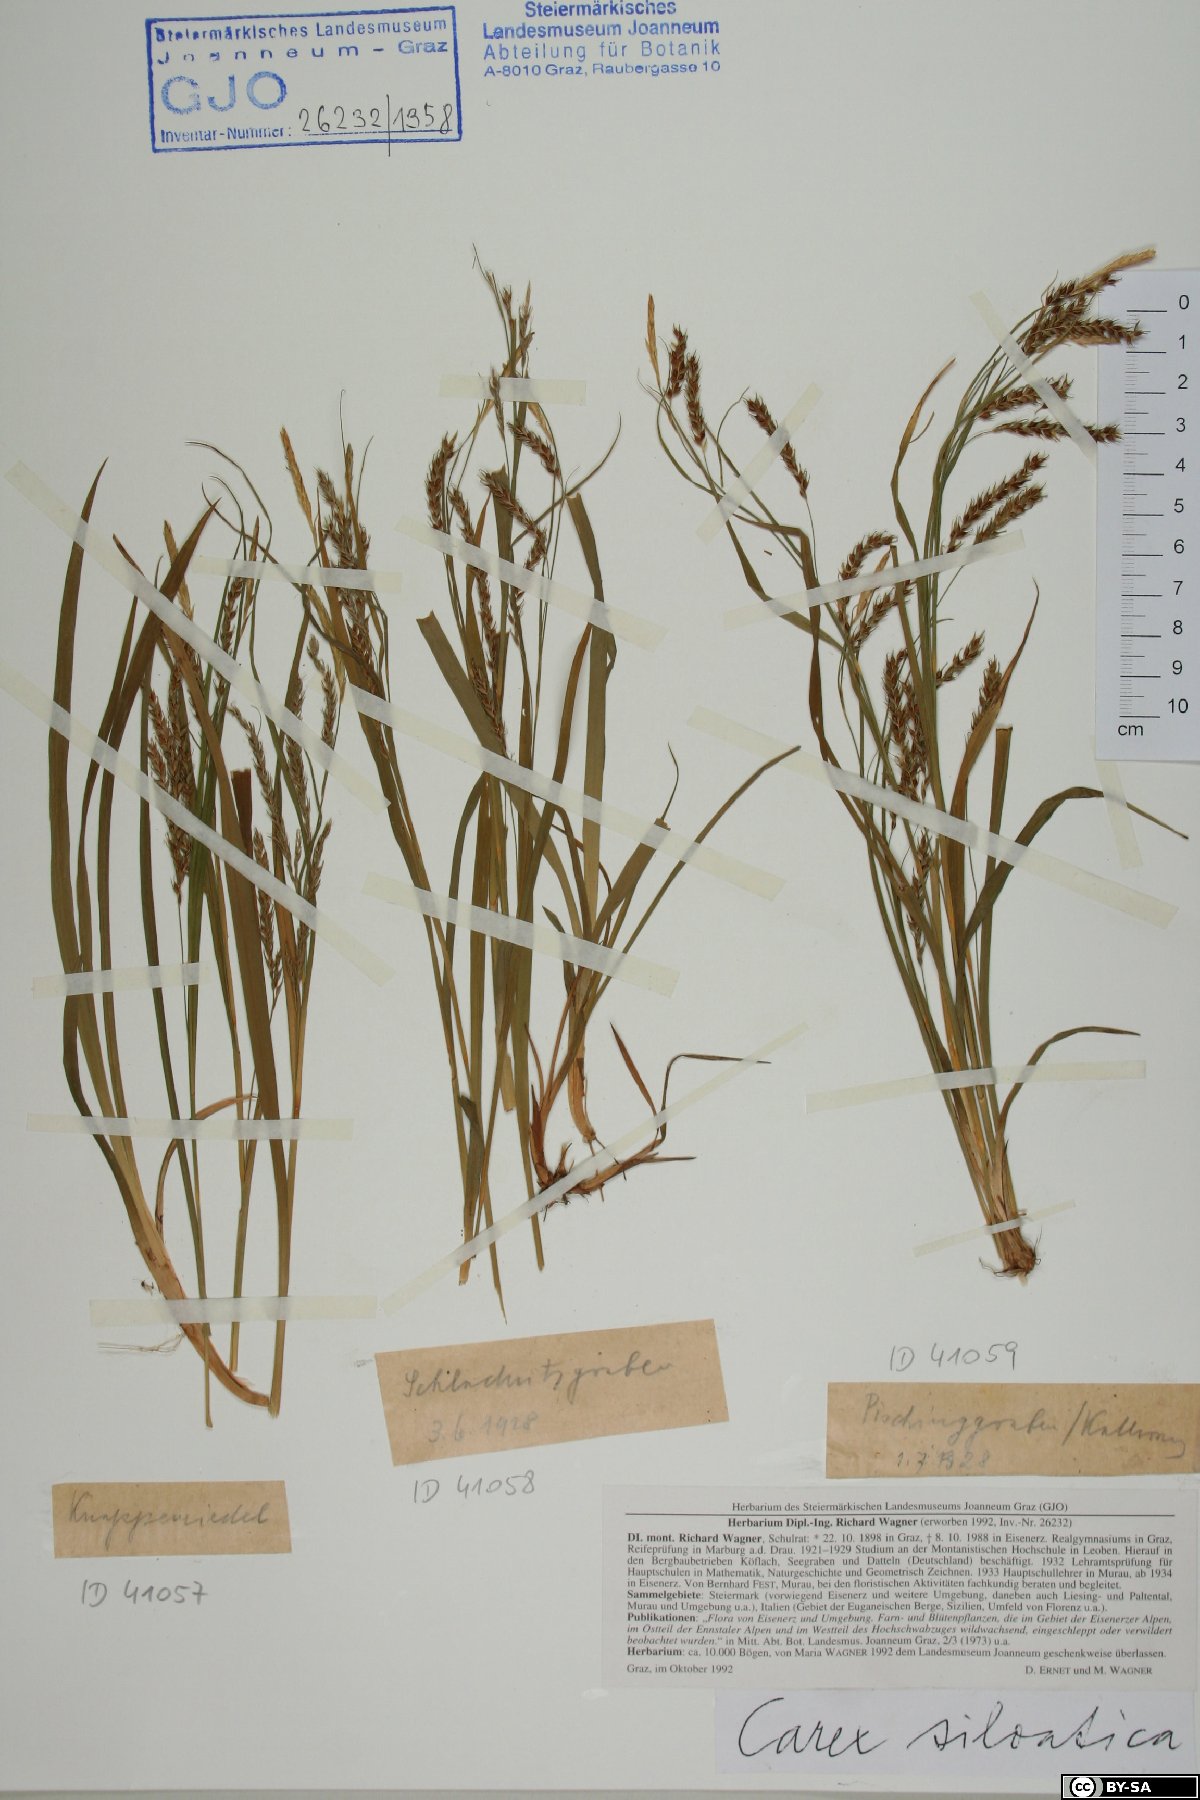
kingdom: Plantae
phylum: Tracheophyta
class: Liliopsida
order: Poales
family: Cyperaceae
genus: Carex
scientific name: Carex sylvatica
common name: Wood-sedge
